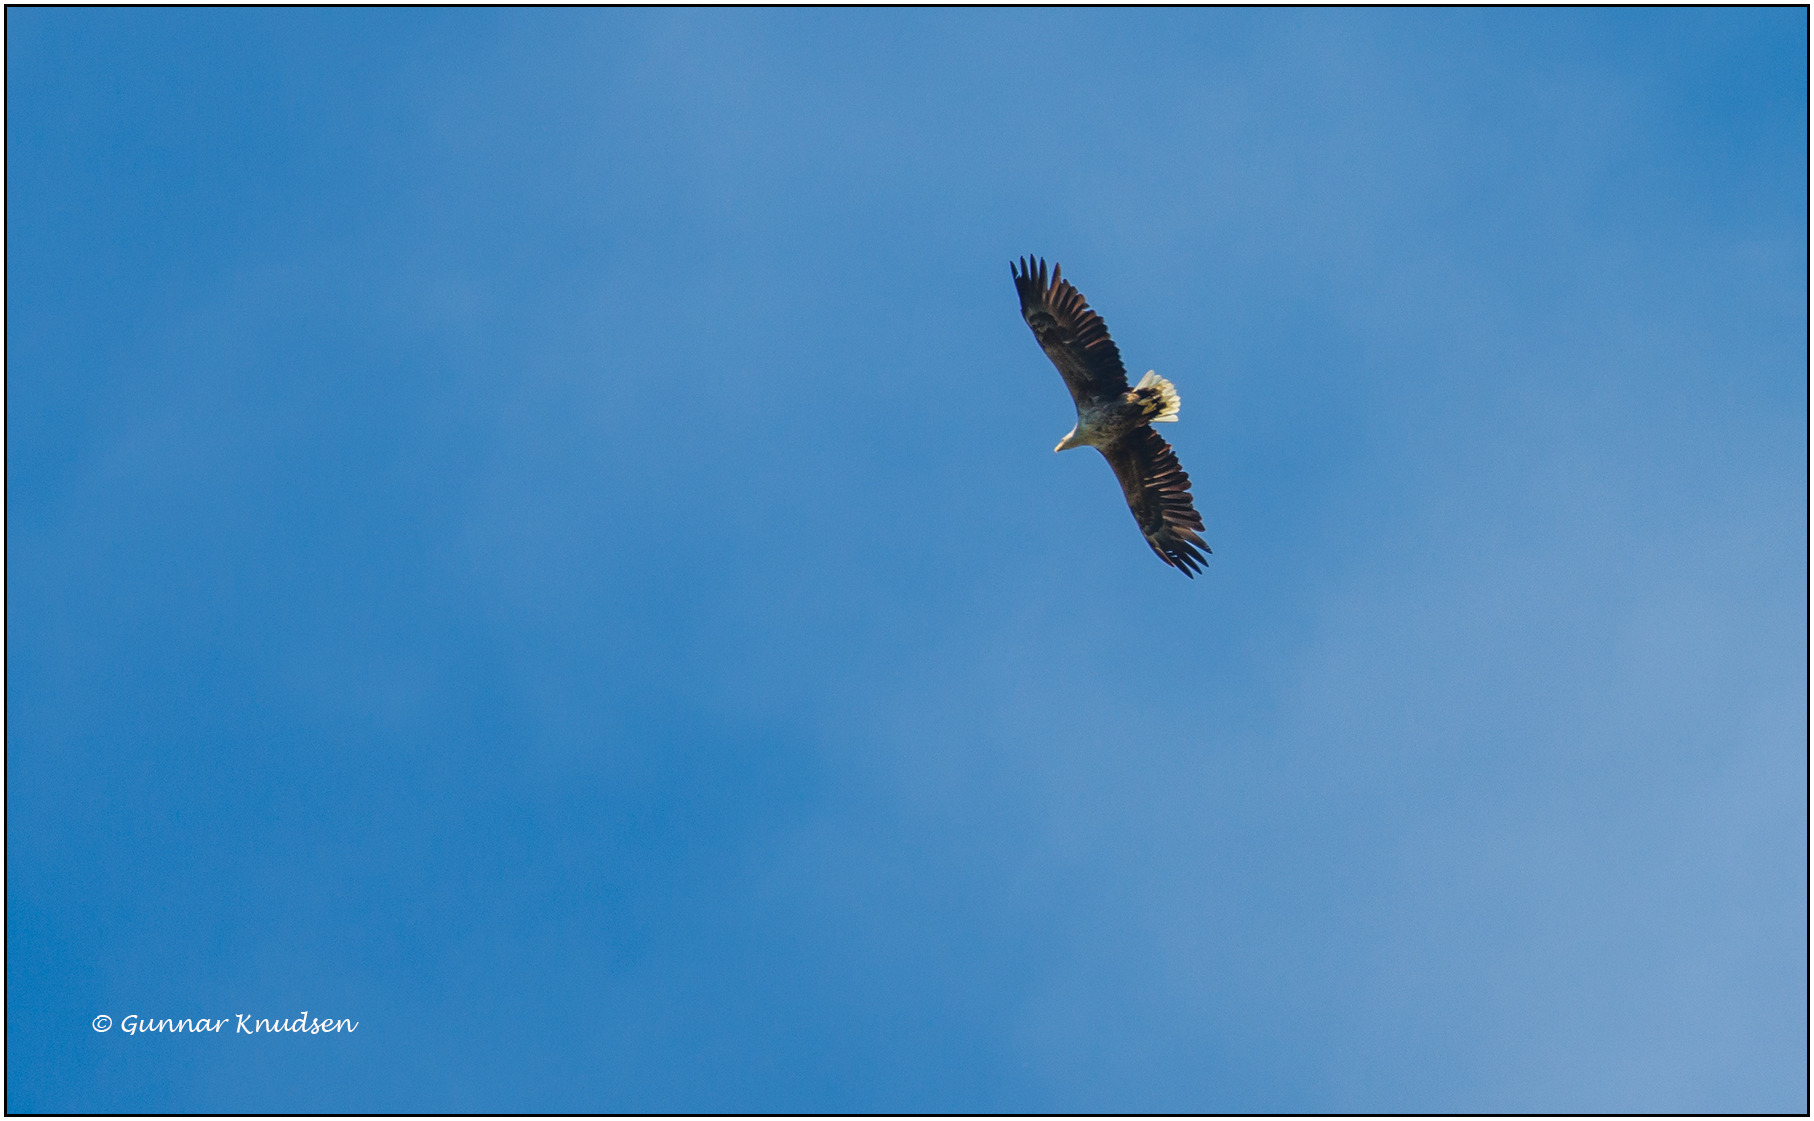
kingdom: Animalia
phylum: Chordata
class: Aves
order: Accipitriformes
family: Accipitridae
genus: Haliaeetus
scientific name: Haliaeetus albicilla
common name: Havørn
